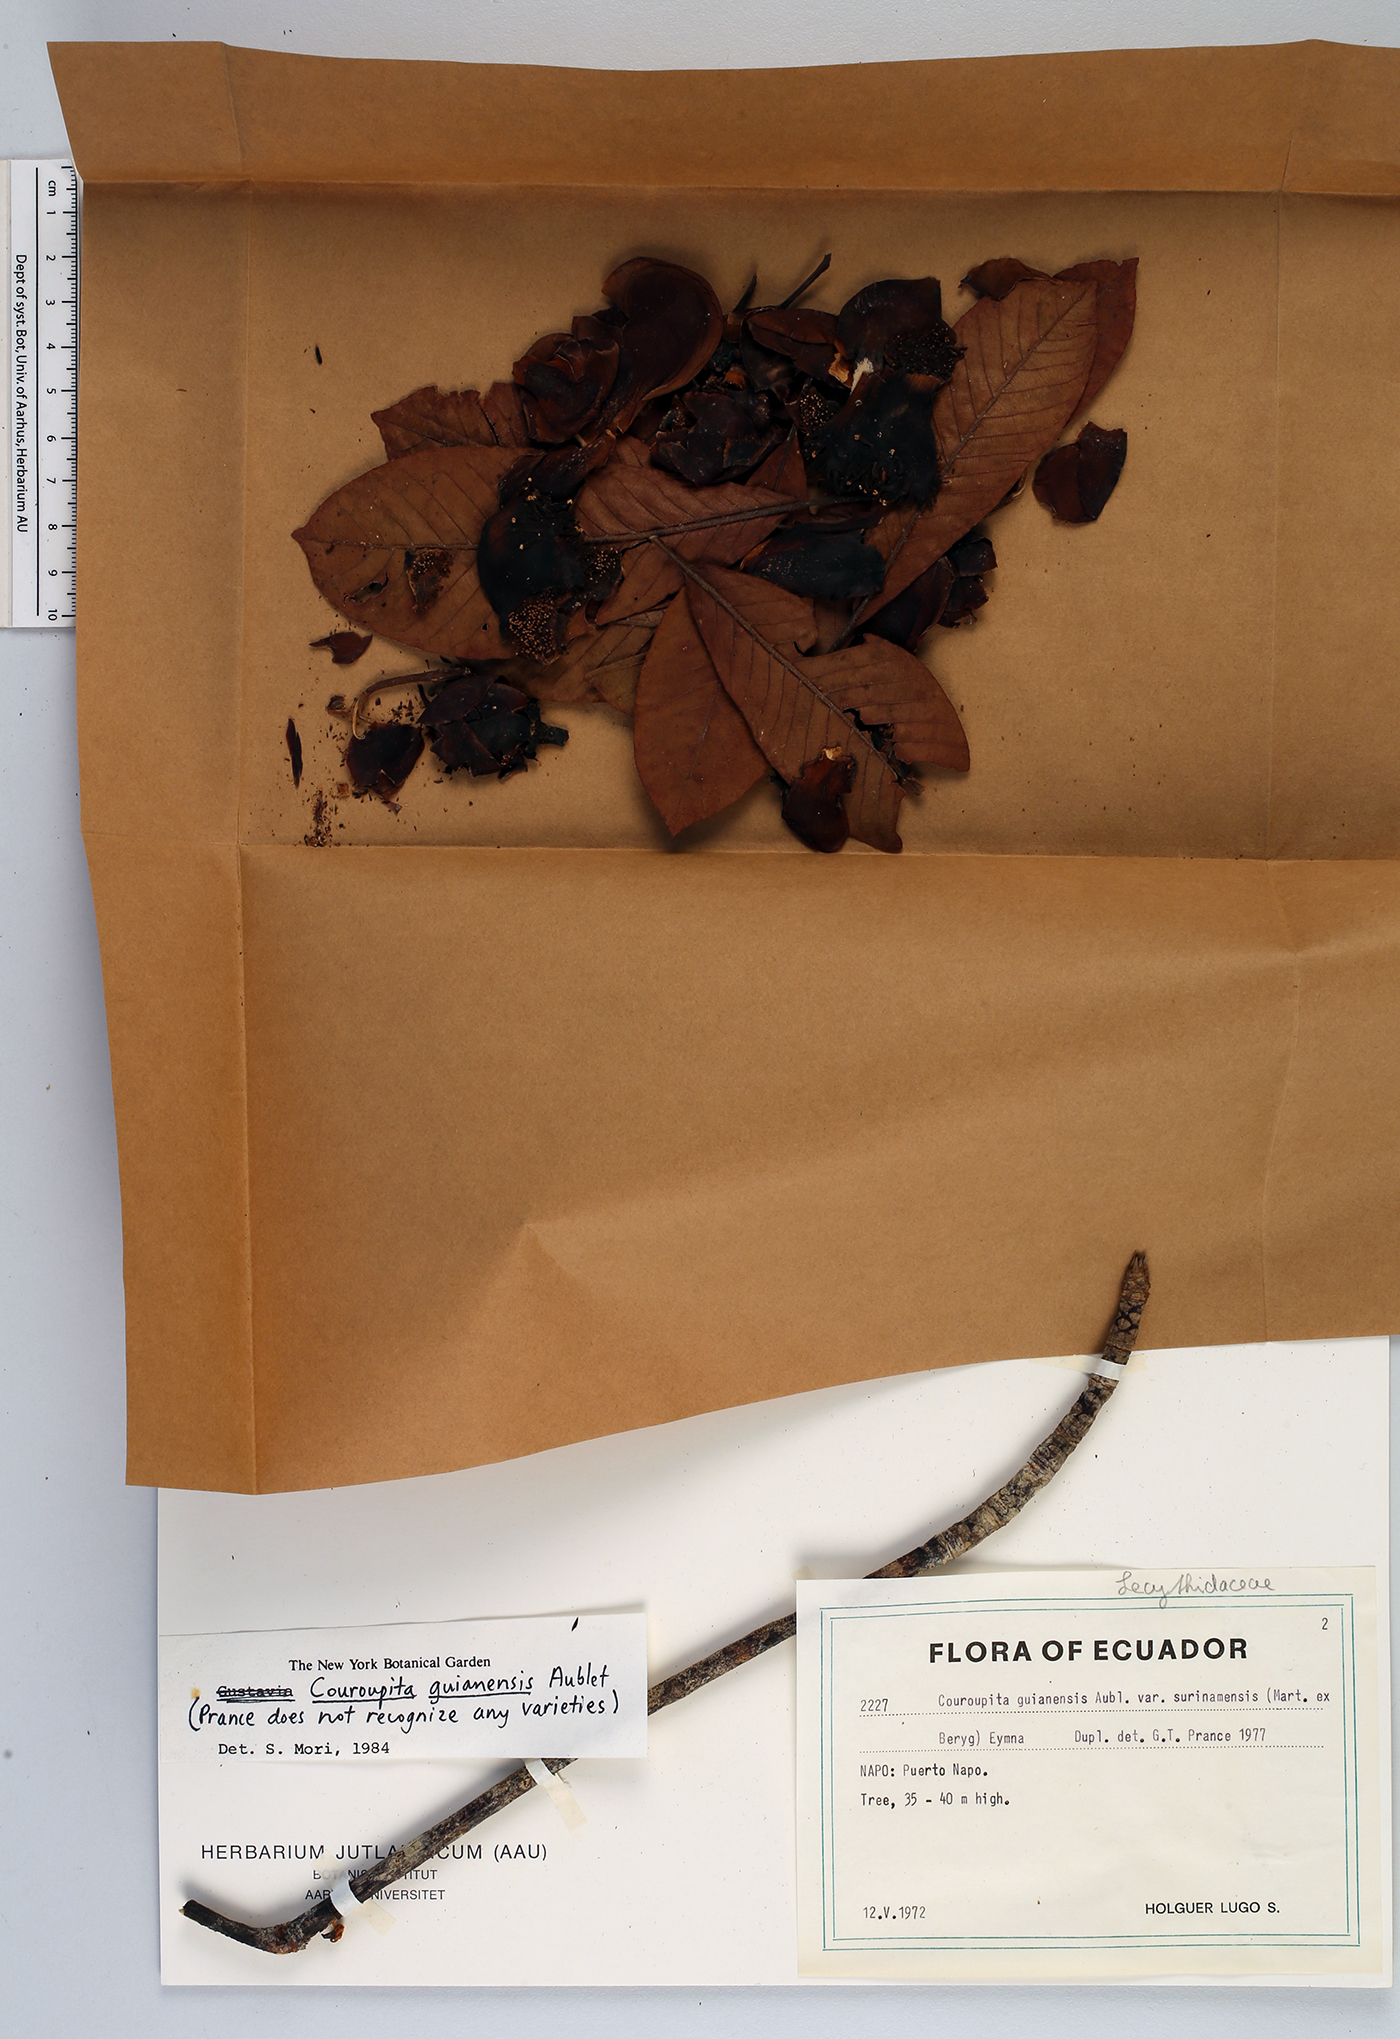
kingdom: Plantae
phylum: Tracheophyta
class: Magnoliopsida
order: Ericales
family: Lecythidaceae
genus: Couroupita
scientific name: Couroupita guianensis
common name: Cannonball tree
